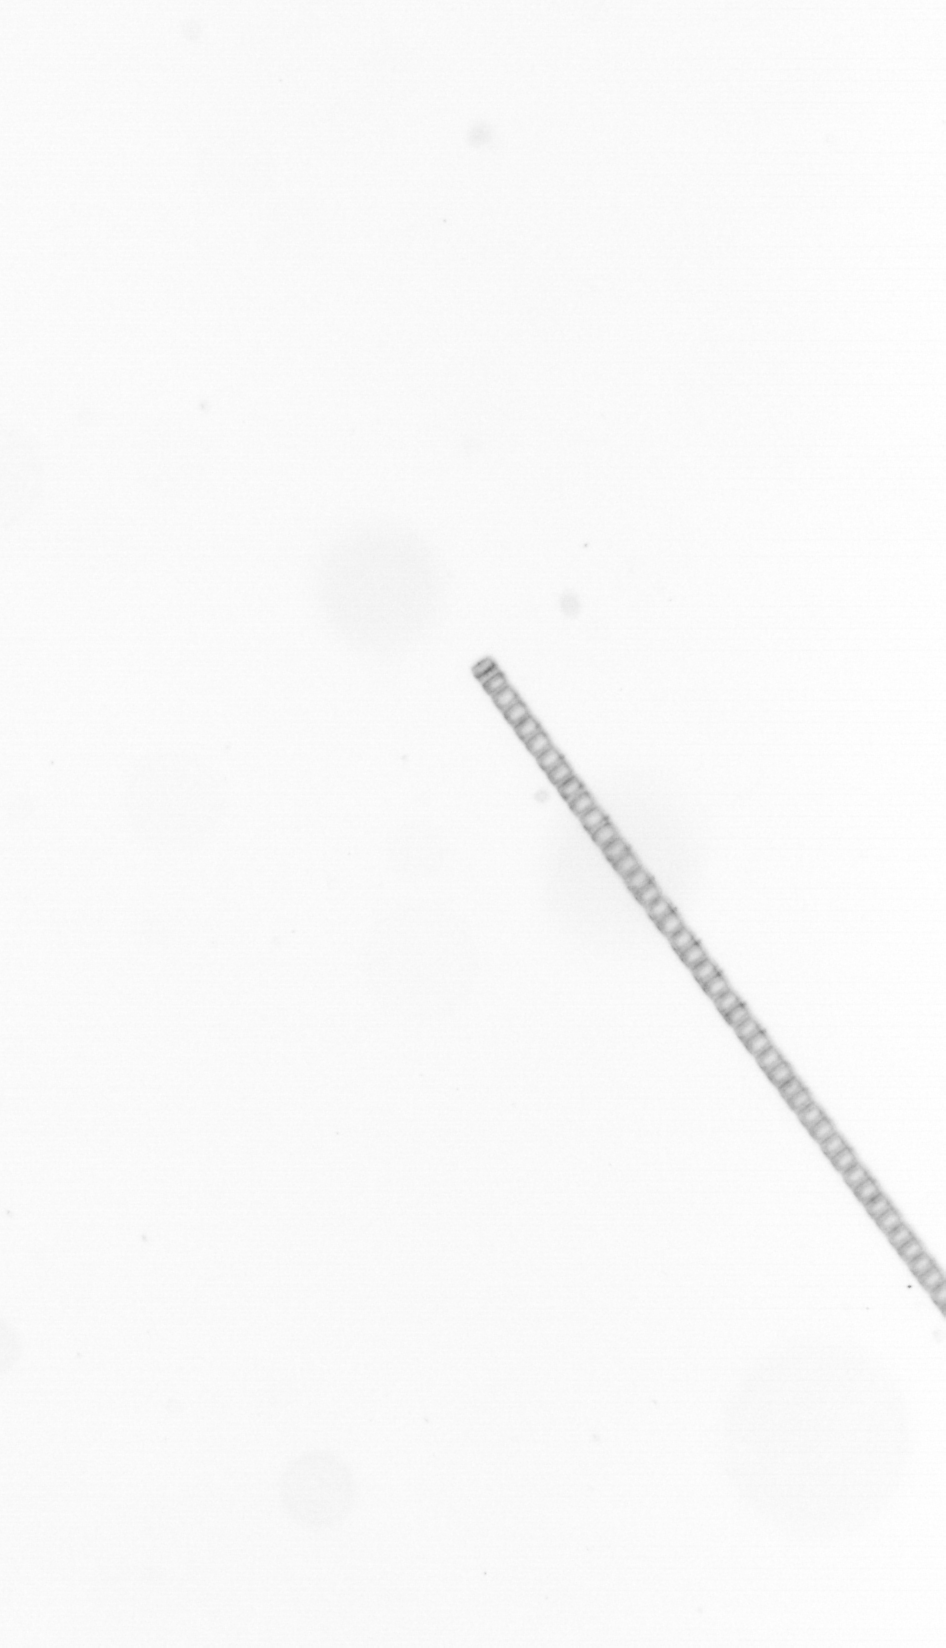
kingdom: Chromista
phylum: Ochrophyta
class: Bacillariophyceae
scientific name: Bacillariophyceae
